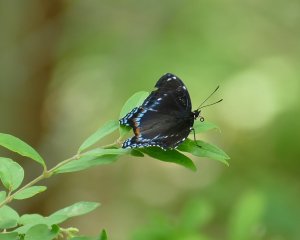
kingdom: Animalia
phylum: Arthropoda
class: Insecta
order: Lepidoptera
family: Nymphalidae
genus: Limenitis
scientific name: Limenitis arthemis
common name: Red-spotted Admiral
